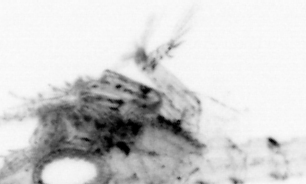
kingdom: Animalia
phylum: Arthropoda
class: Malacostraca
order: Decapoda
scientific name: Decapoda
